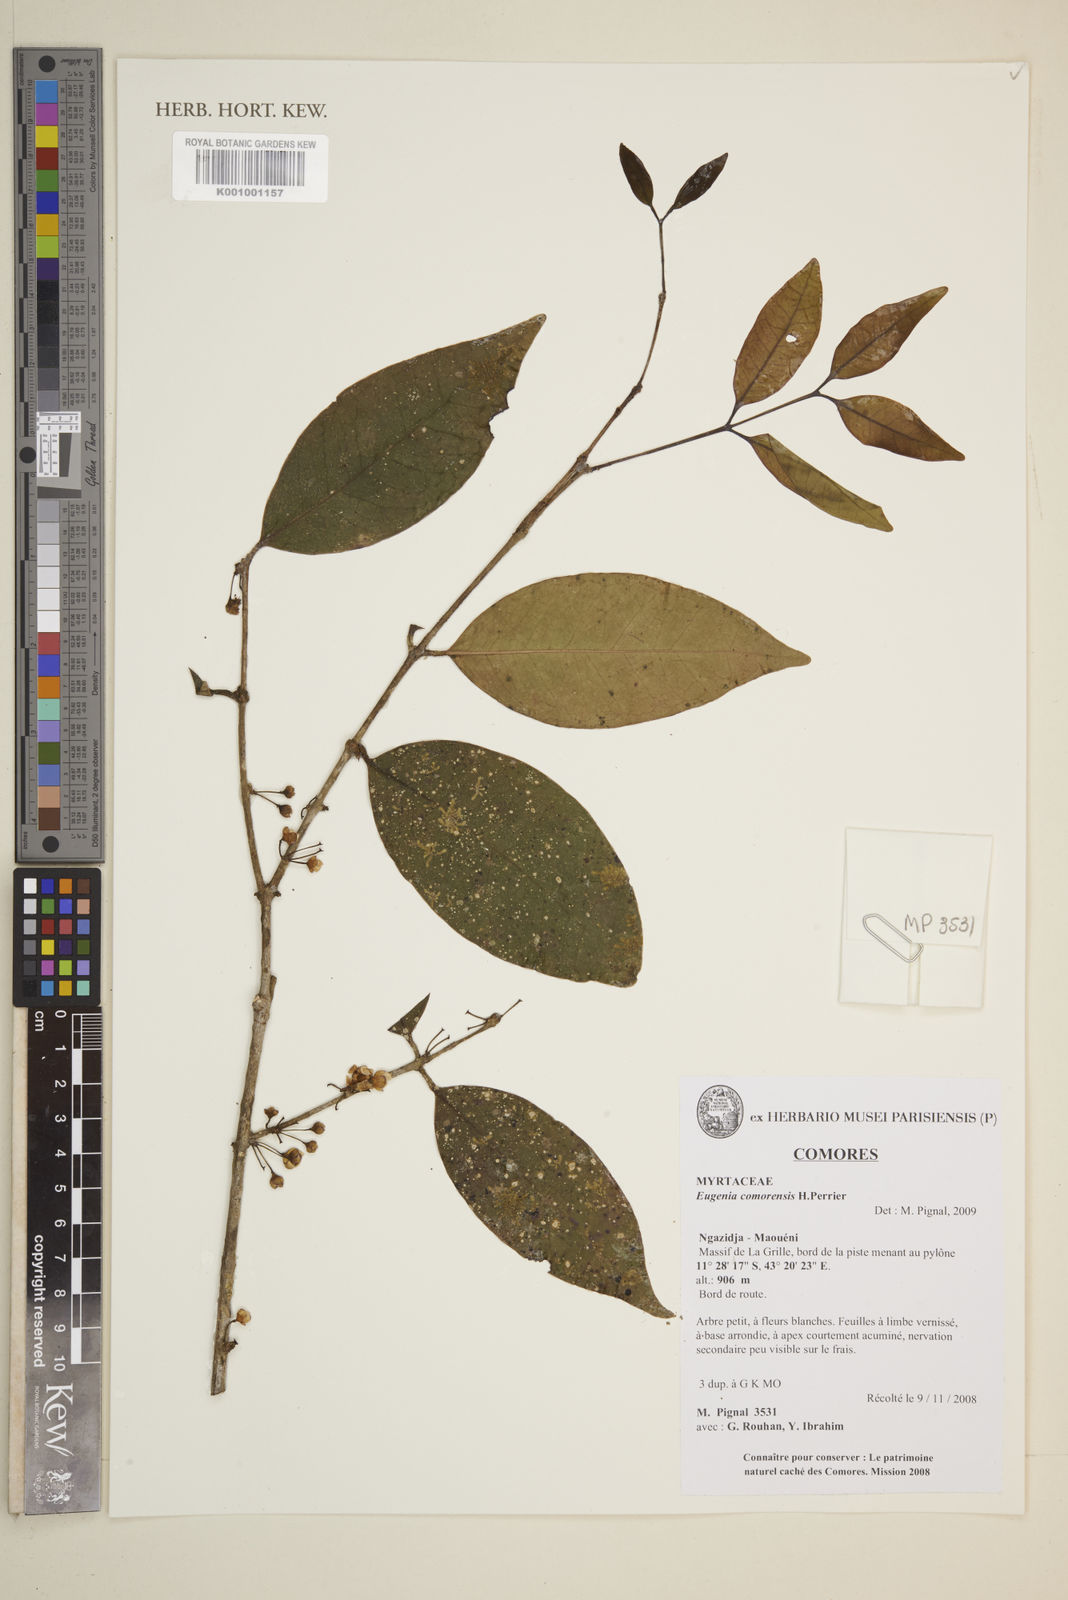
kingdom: Plantae
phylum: Tracheophyta
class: Magnoliopsida
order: Myrtales
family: Myrtaceae
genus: Eugenia
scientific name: Eugenia comorensis
